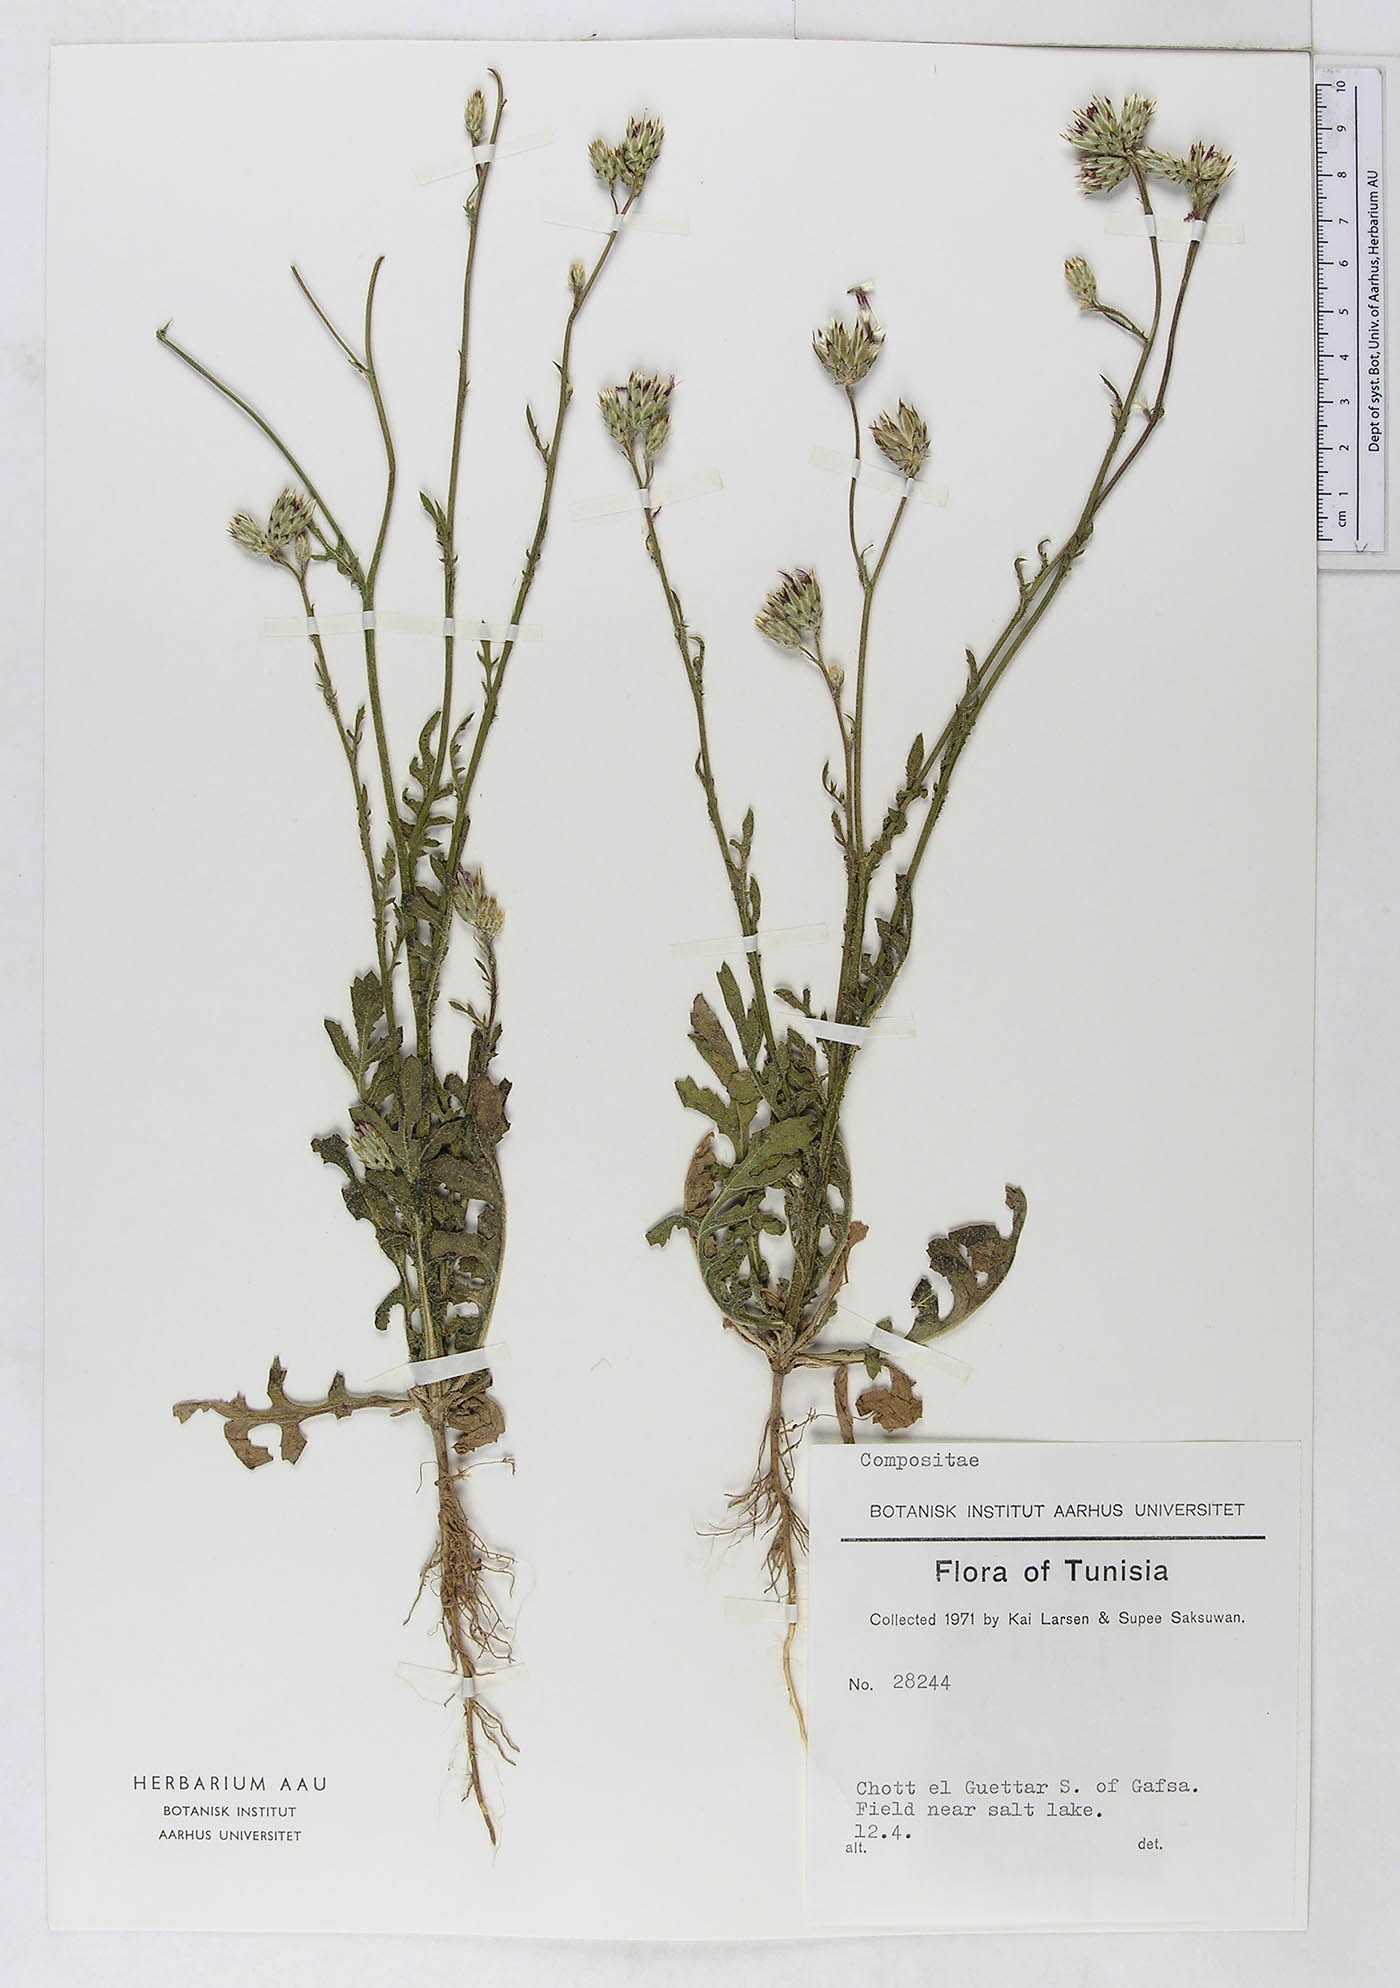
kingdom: Plantae
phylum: Tracheophyta
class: Magnoliopsida
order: Asterales
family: Asteraceae
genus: Volutaria
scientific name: Volutaria tubuliflora
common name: Desert knapweed
